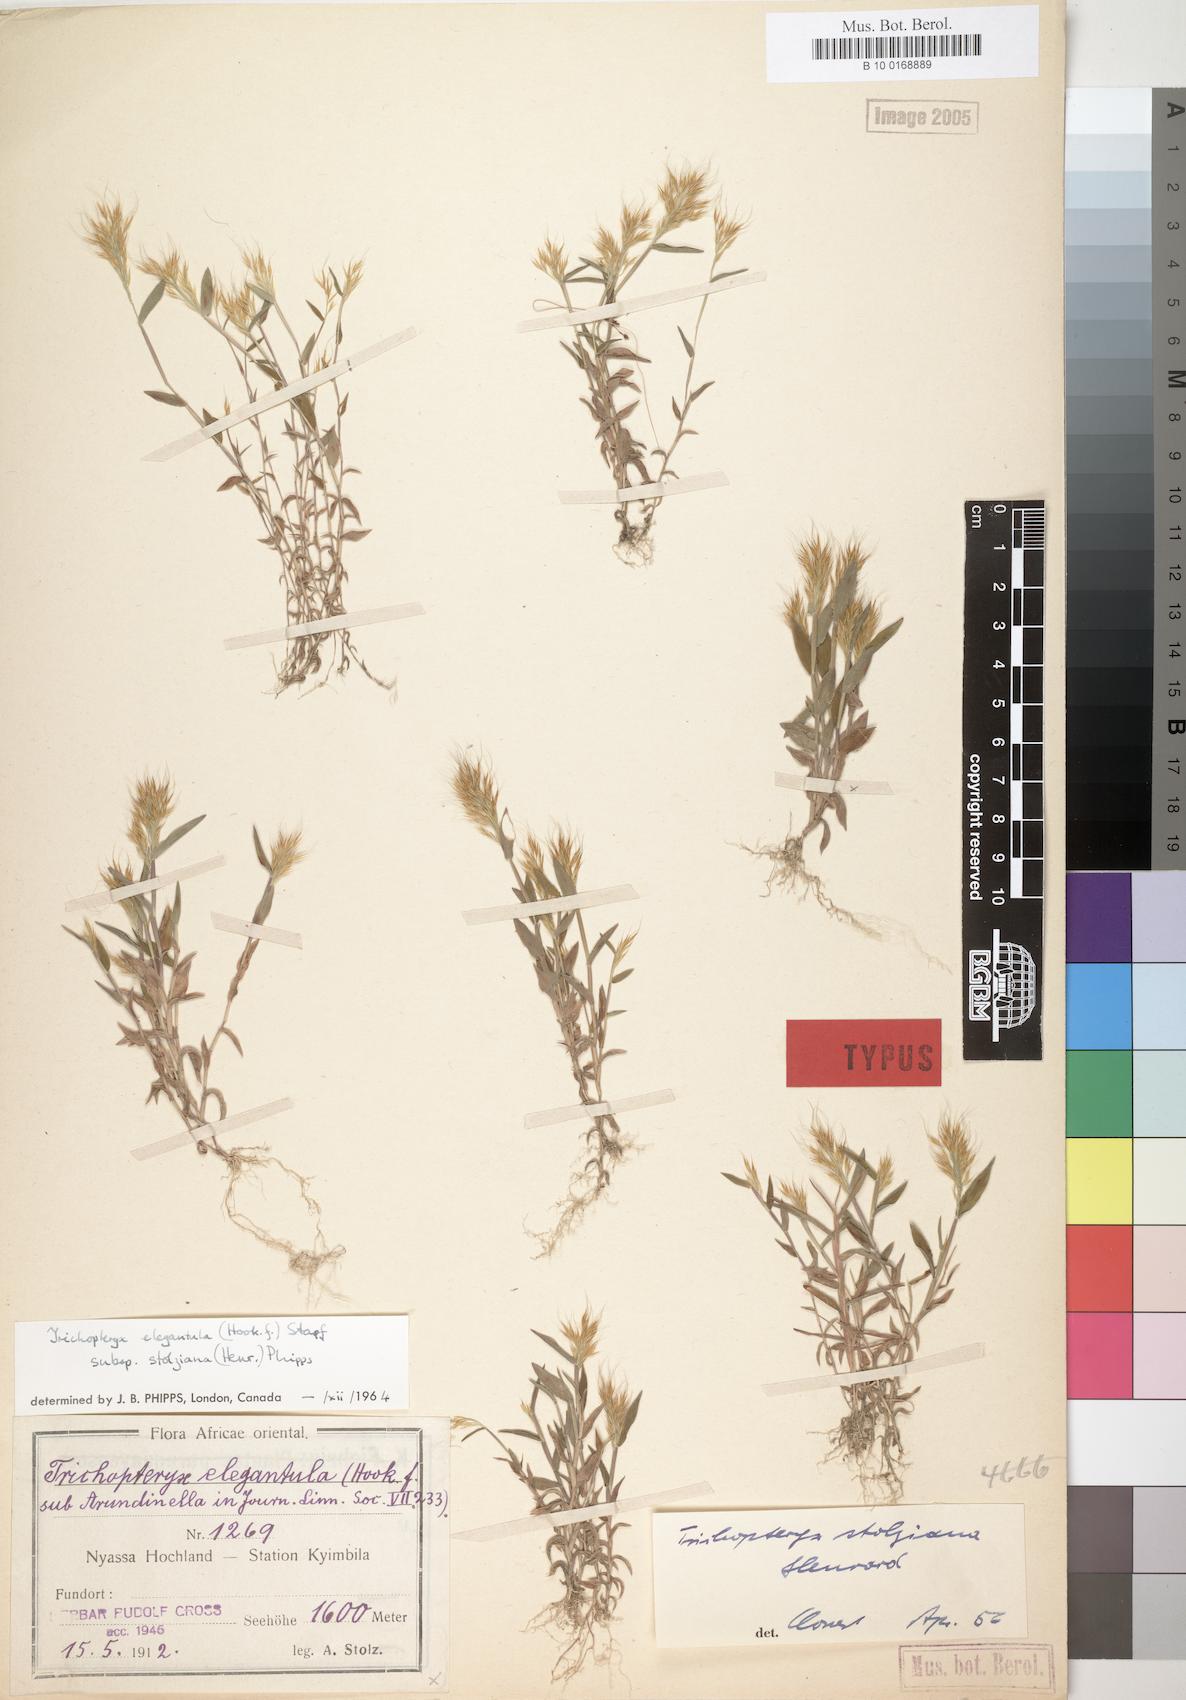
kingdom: Plantae
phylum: Tracheophyta
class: Liliopsida
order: Poales
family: Poaceae
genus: Trichopteryx
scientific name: Trichopteryx stolziana
